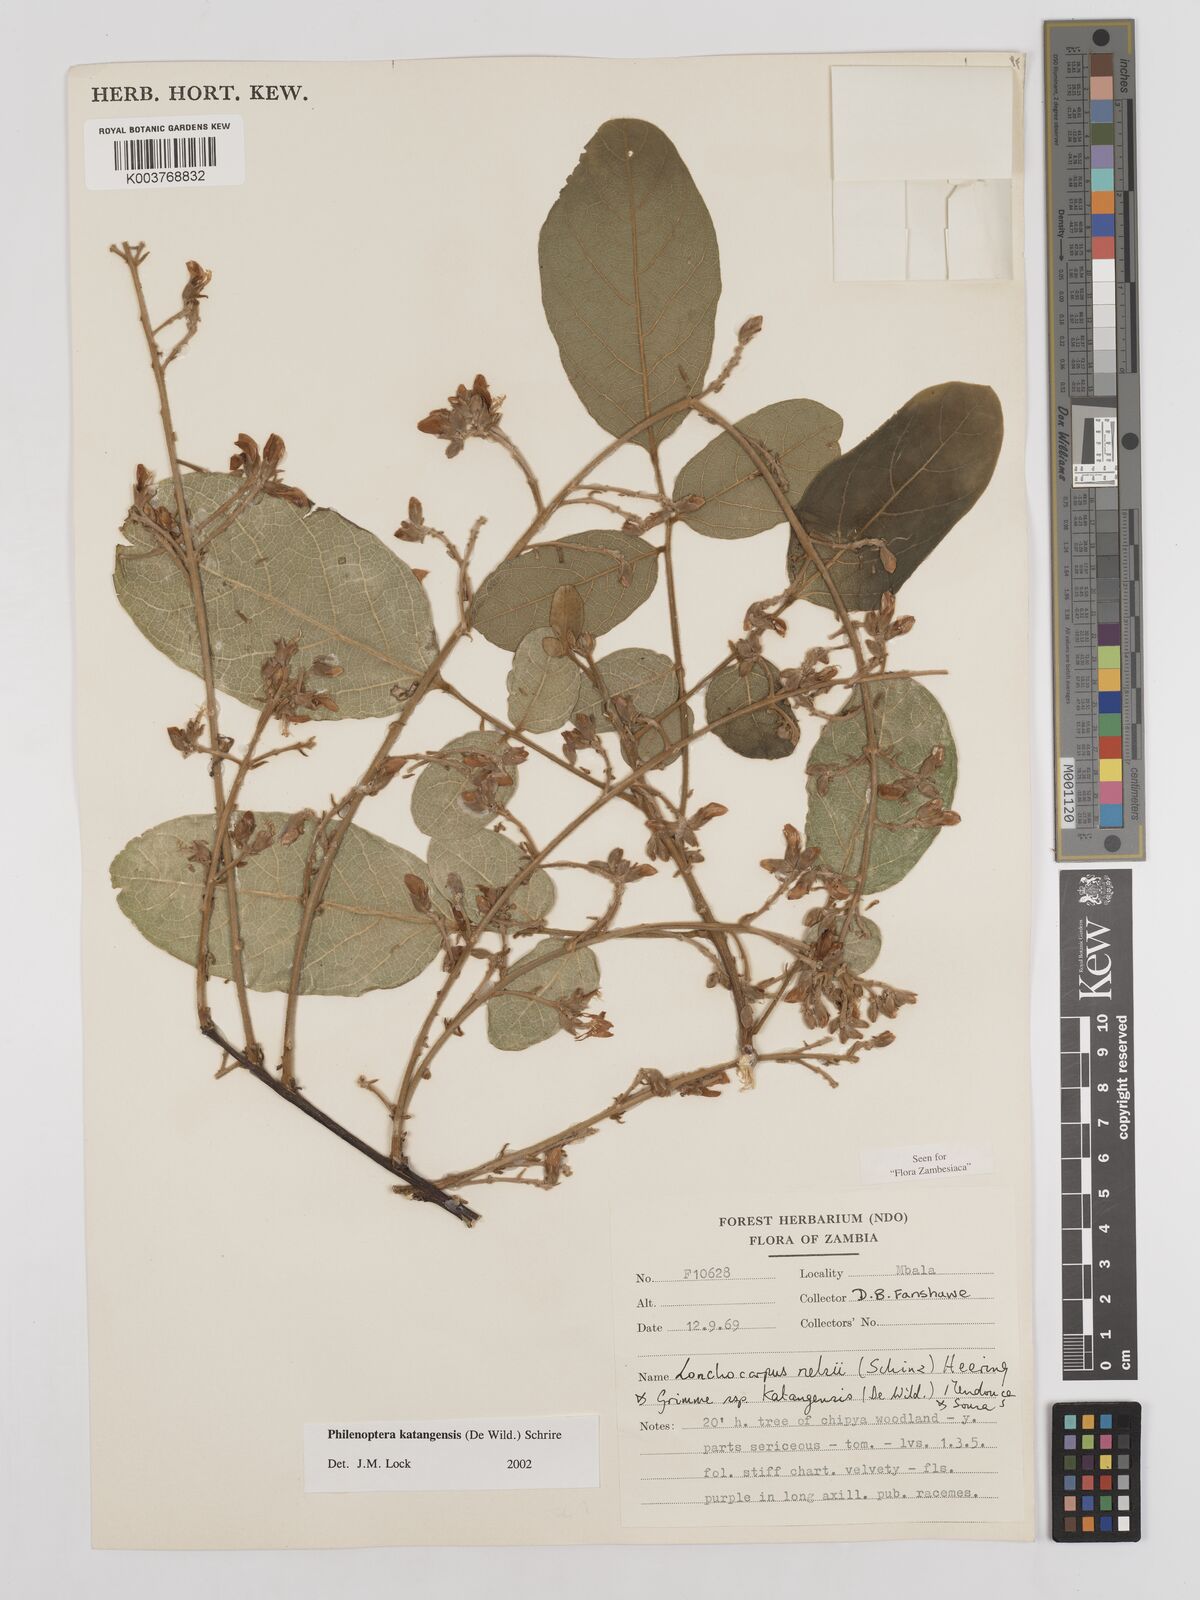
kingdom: Plantae
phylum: Tracheophyta
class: Magnoliopsida
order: Fabales
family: Fabaceae
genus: Philenoptera
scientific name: Philenoptera katangensis
